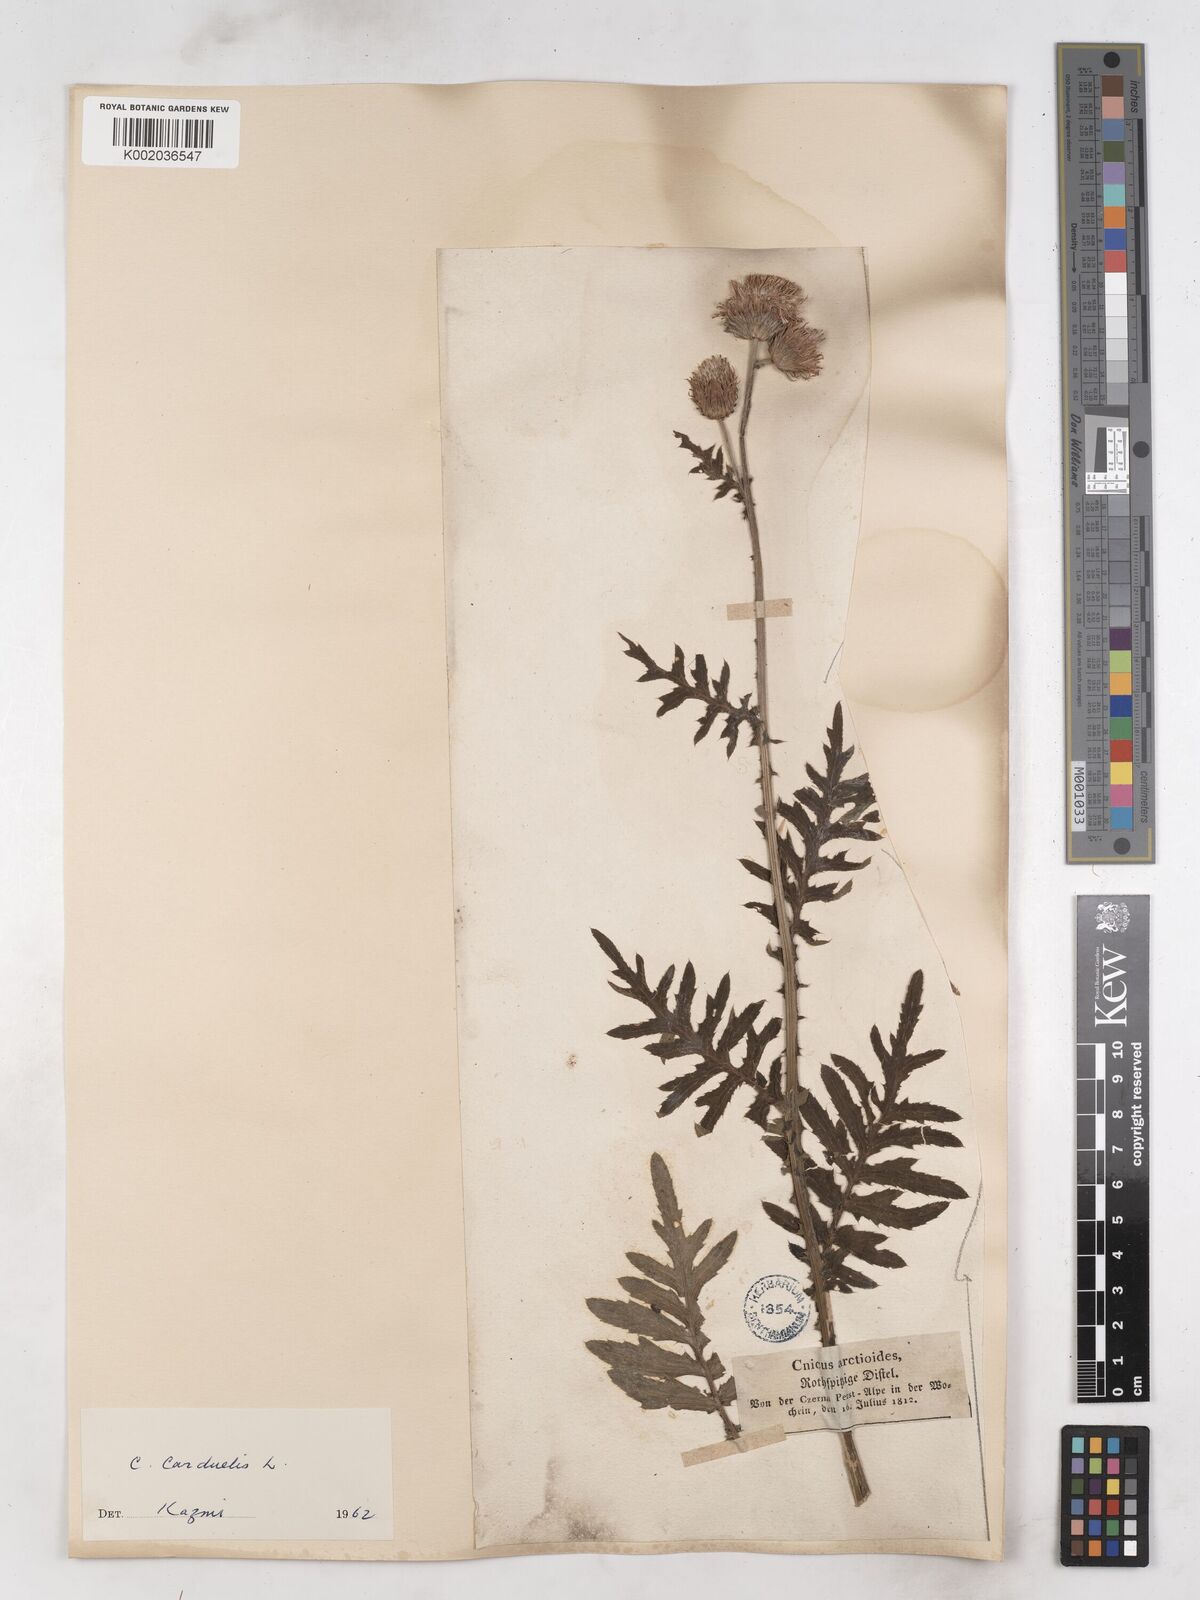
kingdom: Plantae
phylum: Tracheophyta
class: Magnoliopsida
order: Asterales
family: Asteraceae
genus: Carduus
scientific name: Carduus carduelis
